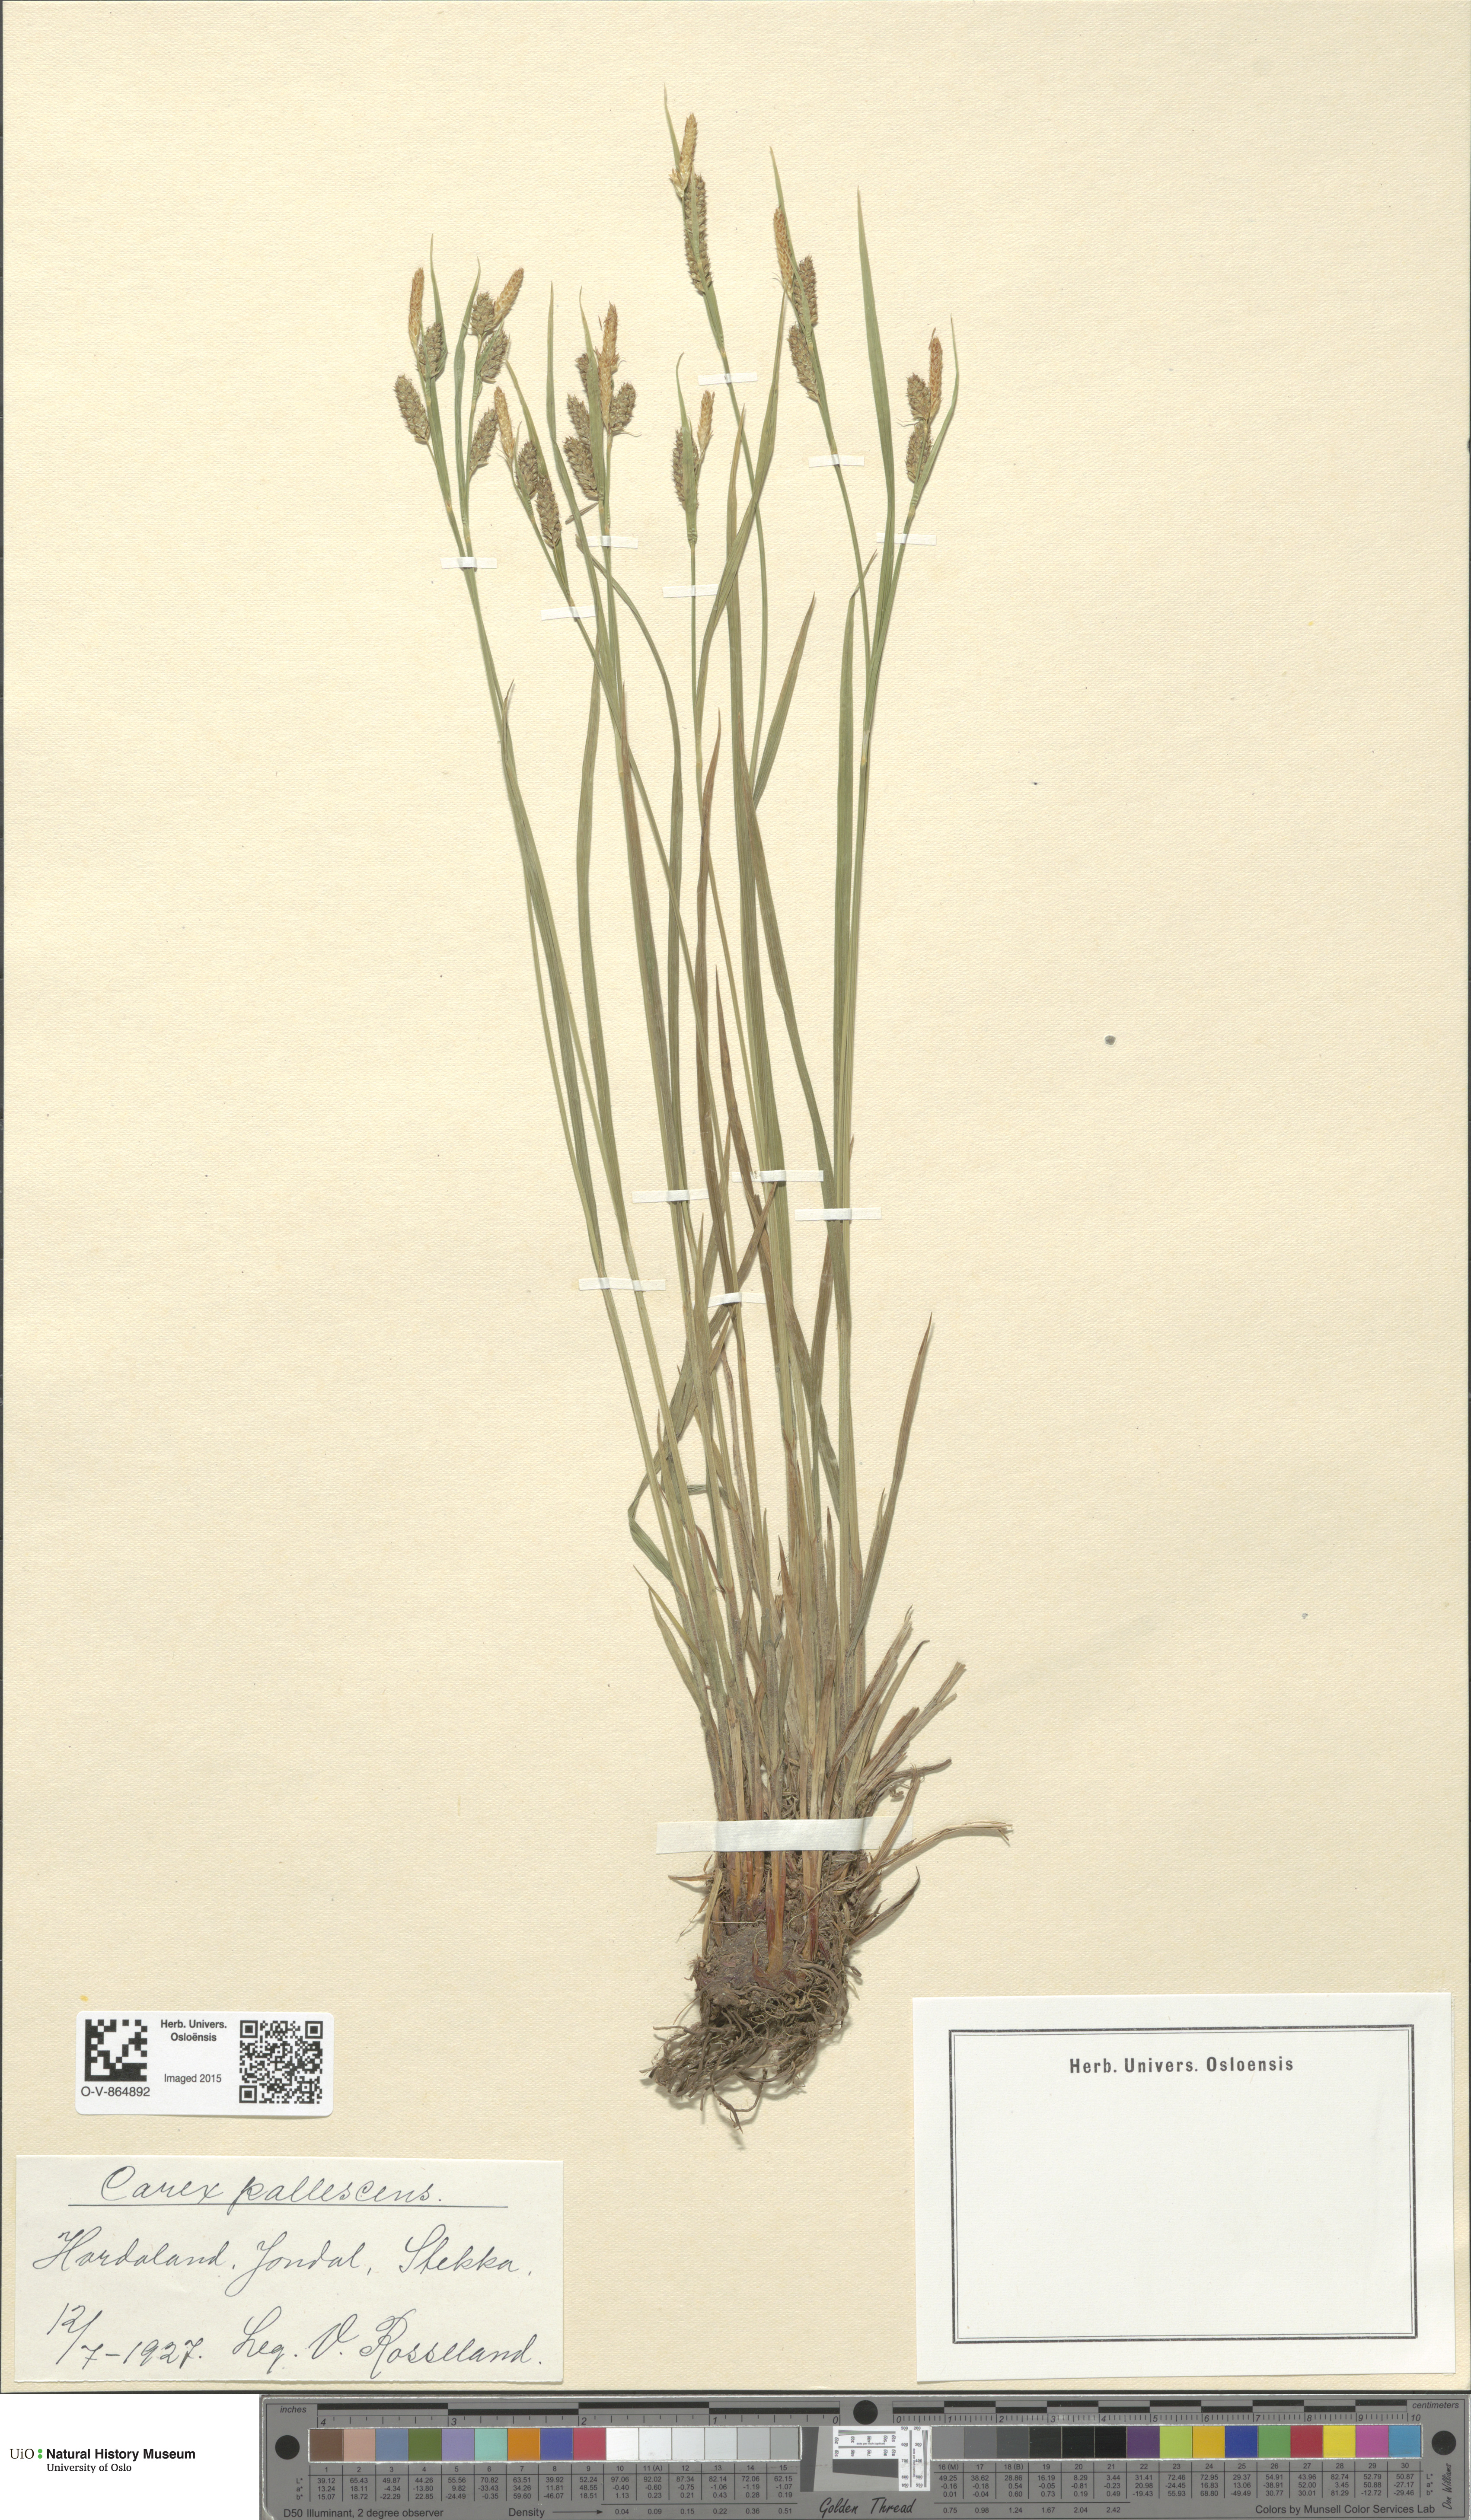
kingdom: Plantae
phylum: Tracheophyta
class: Liliopsida
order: Poales
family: Cyperaceae
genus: Carex
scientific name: Carex pallescens
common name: Pale sedge
